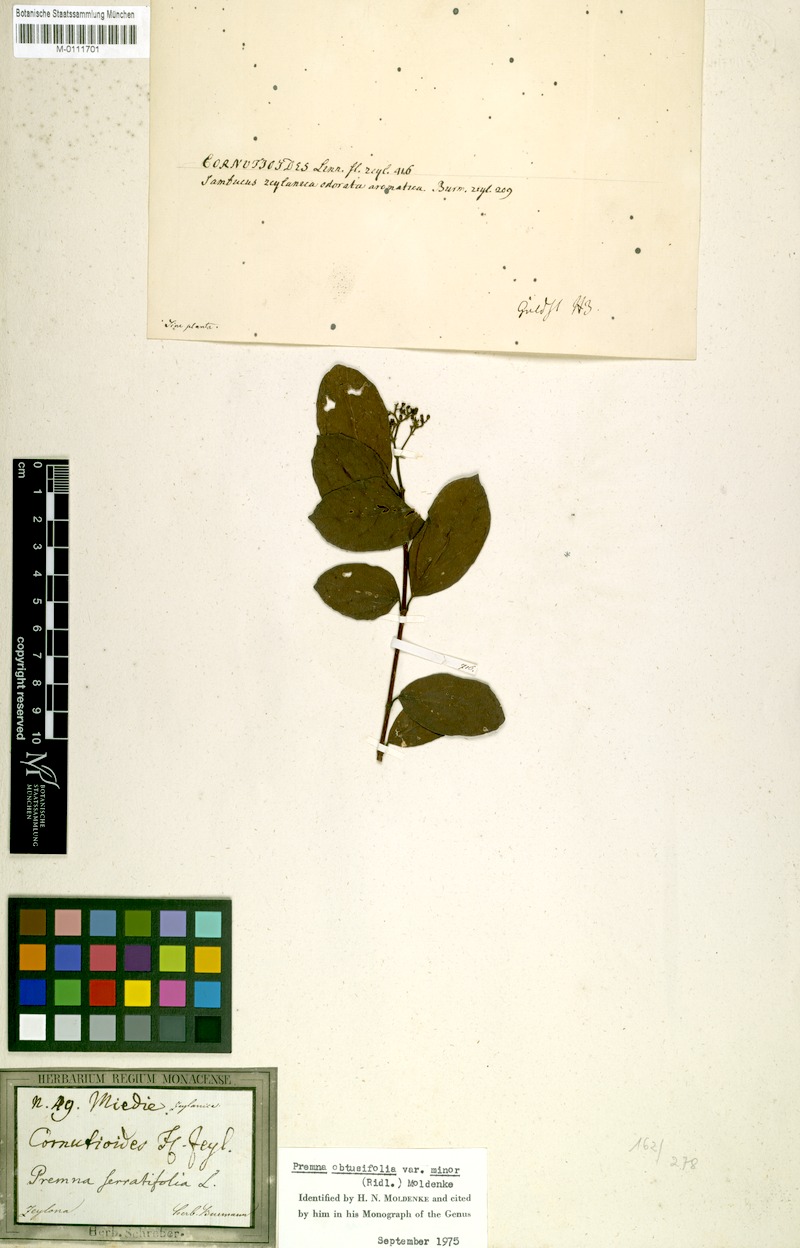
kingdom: Plantae
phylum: Tracheophyta
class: Magnoliopsida
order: Lamiales
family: Lamiaceae
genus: Premna
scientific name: Premna serratifolia
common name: Bastard guelder
